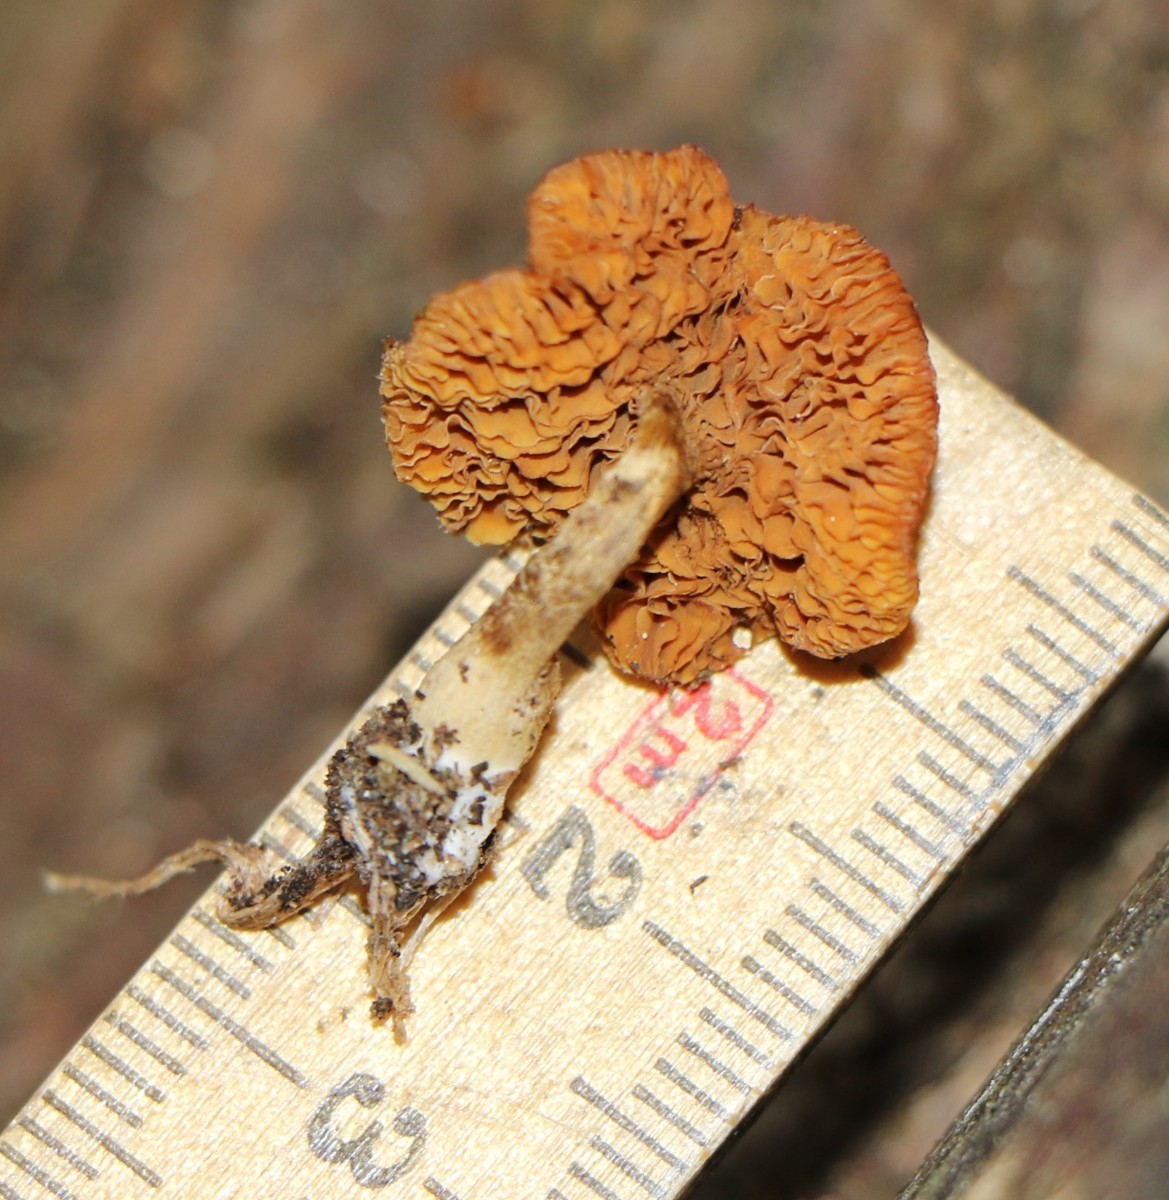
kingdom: Fungi
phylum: Basidiomycota
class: Agaricomycetes
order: Agaricales
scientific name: Agaricales
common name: champignonordenen
